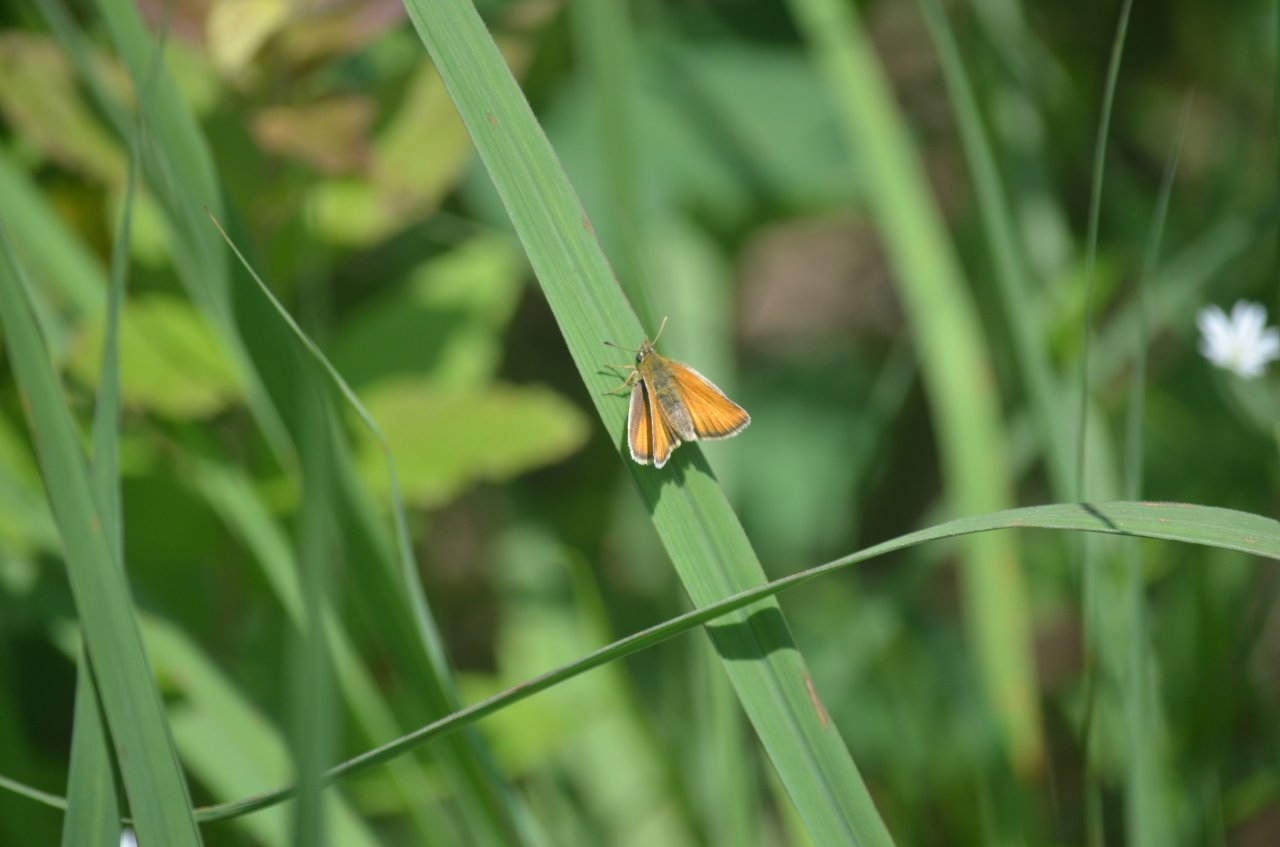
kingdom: Animalia
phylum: Arthropoda
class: Insecta
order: Lepidoptera
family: Hesperiidae
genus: Thymelicus
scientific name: Thymelicus lineola
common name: European Skipper
